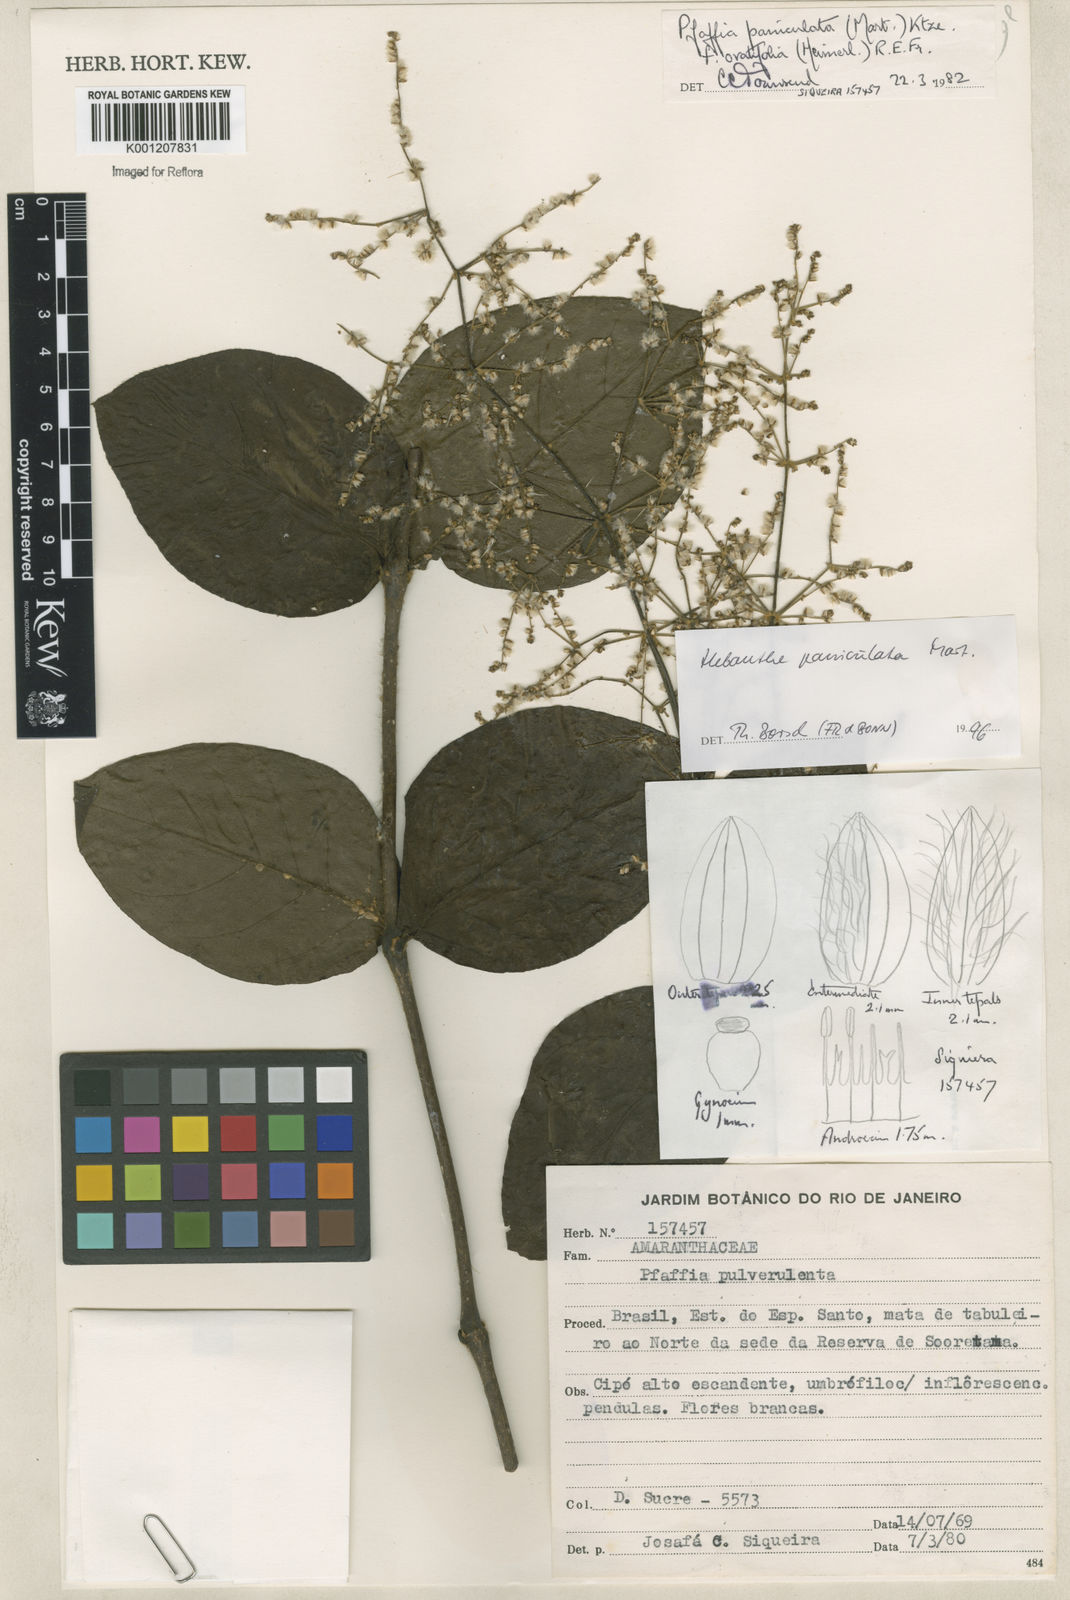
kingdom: Plantae
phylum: Tracheophyta
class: Magnoliopsida
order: Caryophyllales
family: Amaranthaceae
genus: Hebanthe
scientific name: Hebanthe erianthos
